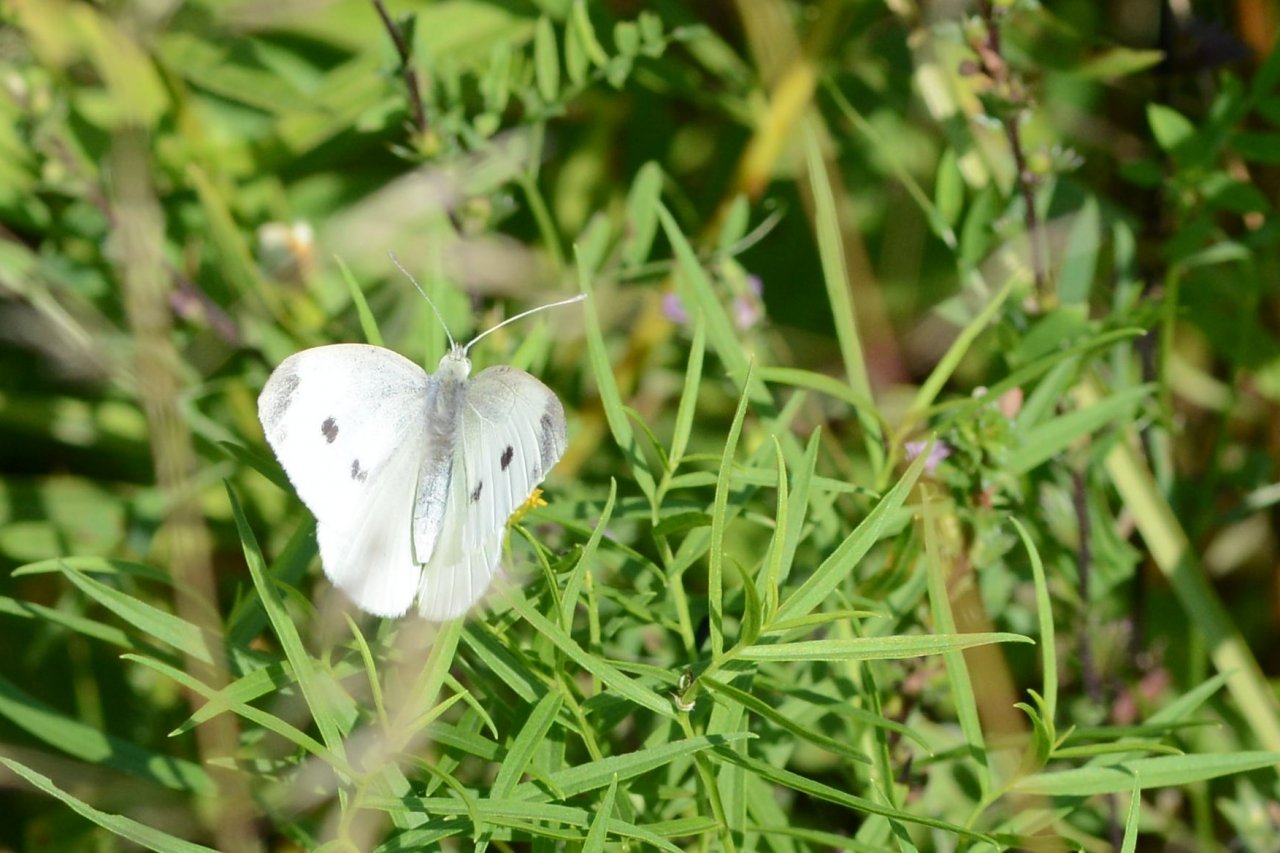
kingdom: Animalia
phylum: Arthropoda
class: Insecta
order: Lepidoptera
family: Pieridae
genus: Pieris
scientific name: Pieris rapae
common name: Cabbage White
